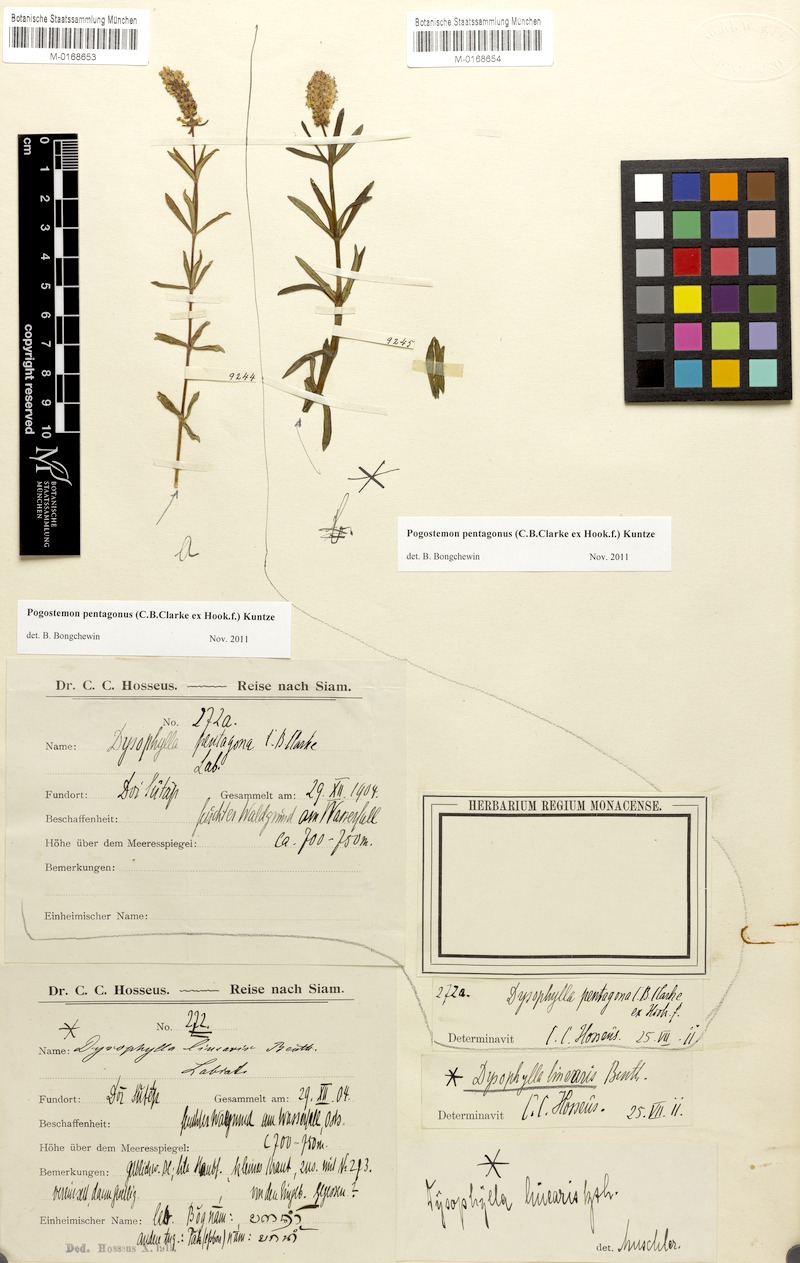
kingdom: Plantae
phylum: Tracheophyta
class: Magnoliopsida
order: Lamiales
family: Lamiaceae
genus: Pogostemon
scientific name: Pogostemon pentagonus
